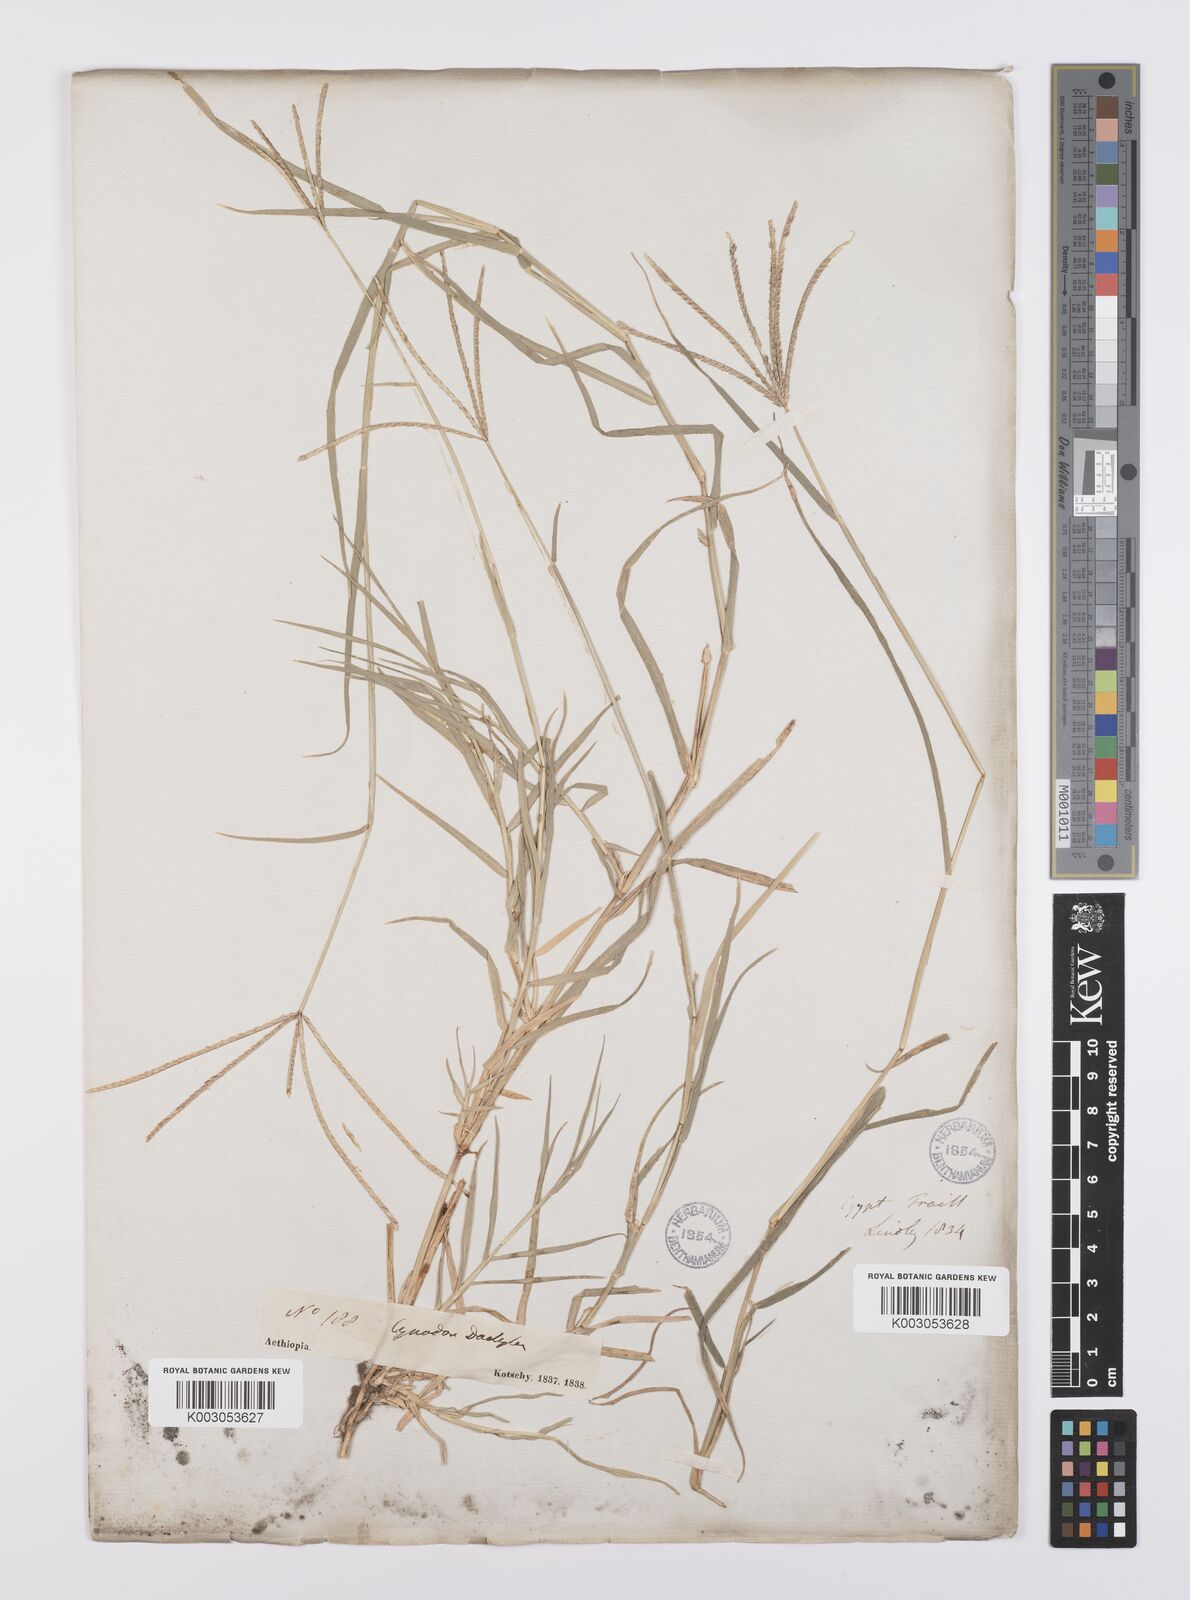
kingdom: Plantae
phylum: Tracheophyta
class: Liliopsida
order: Poales
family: Poaceae
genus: Cynodon
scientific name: Cynodon nlemfuensis
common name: African bermudagrass
